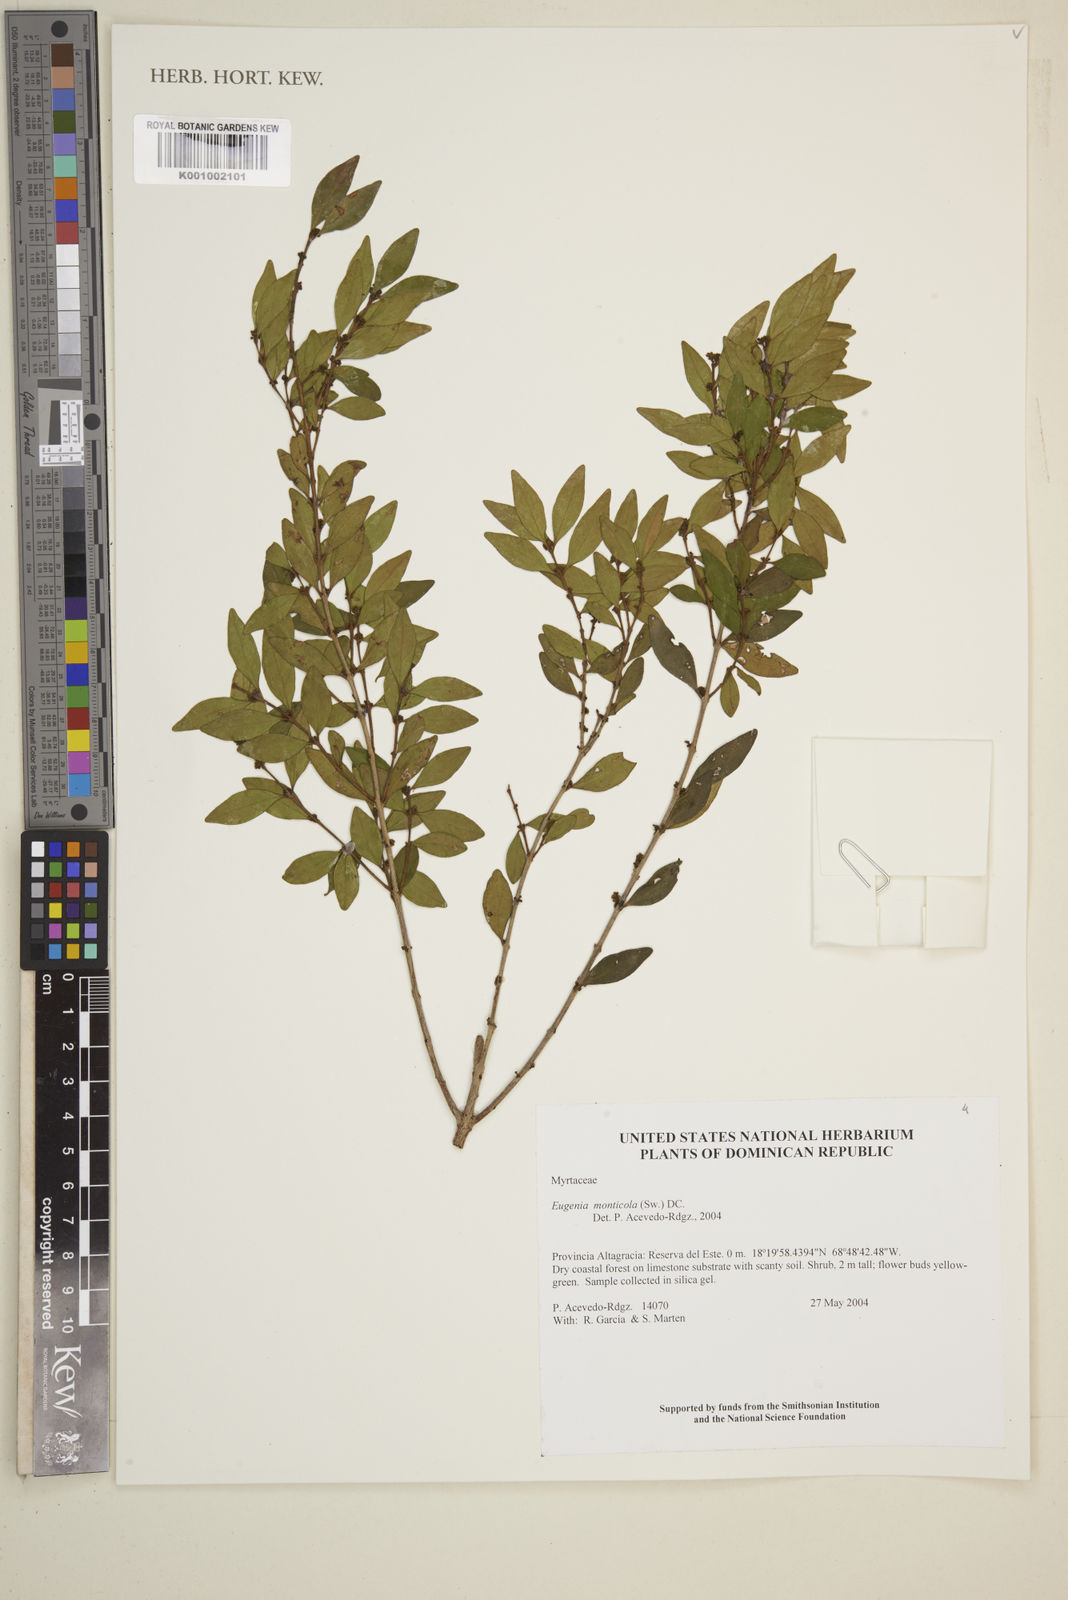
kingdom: Plantae
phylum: Tracheophyta
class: Magnoliopsida
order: Myrtales
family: Myrtaceae
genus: Eugenia
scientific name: Eugenia monticola
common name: Birds berry
